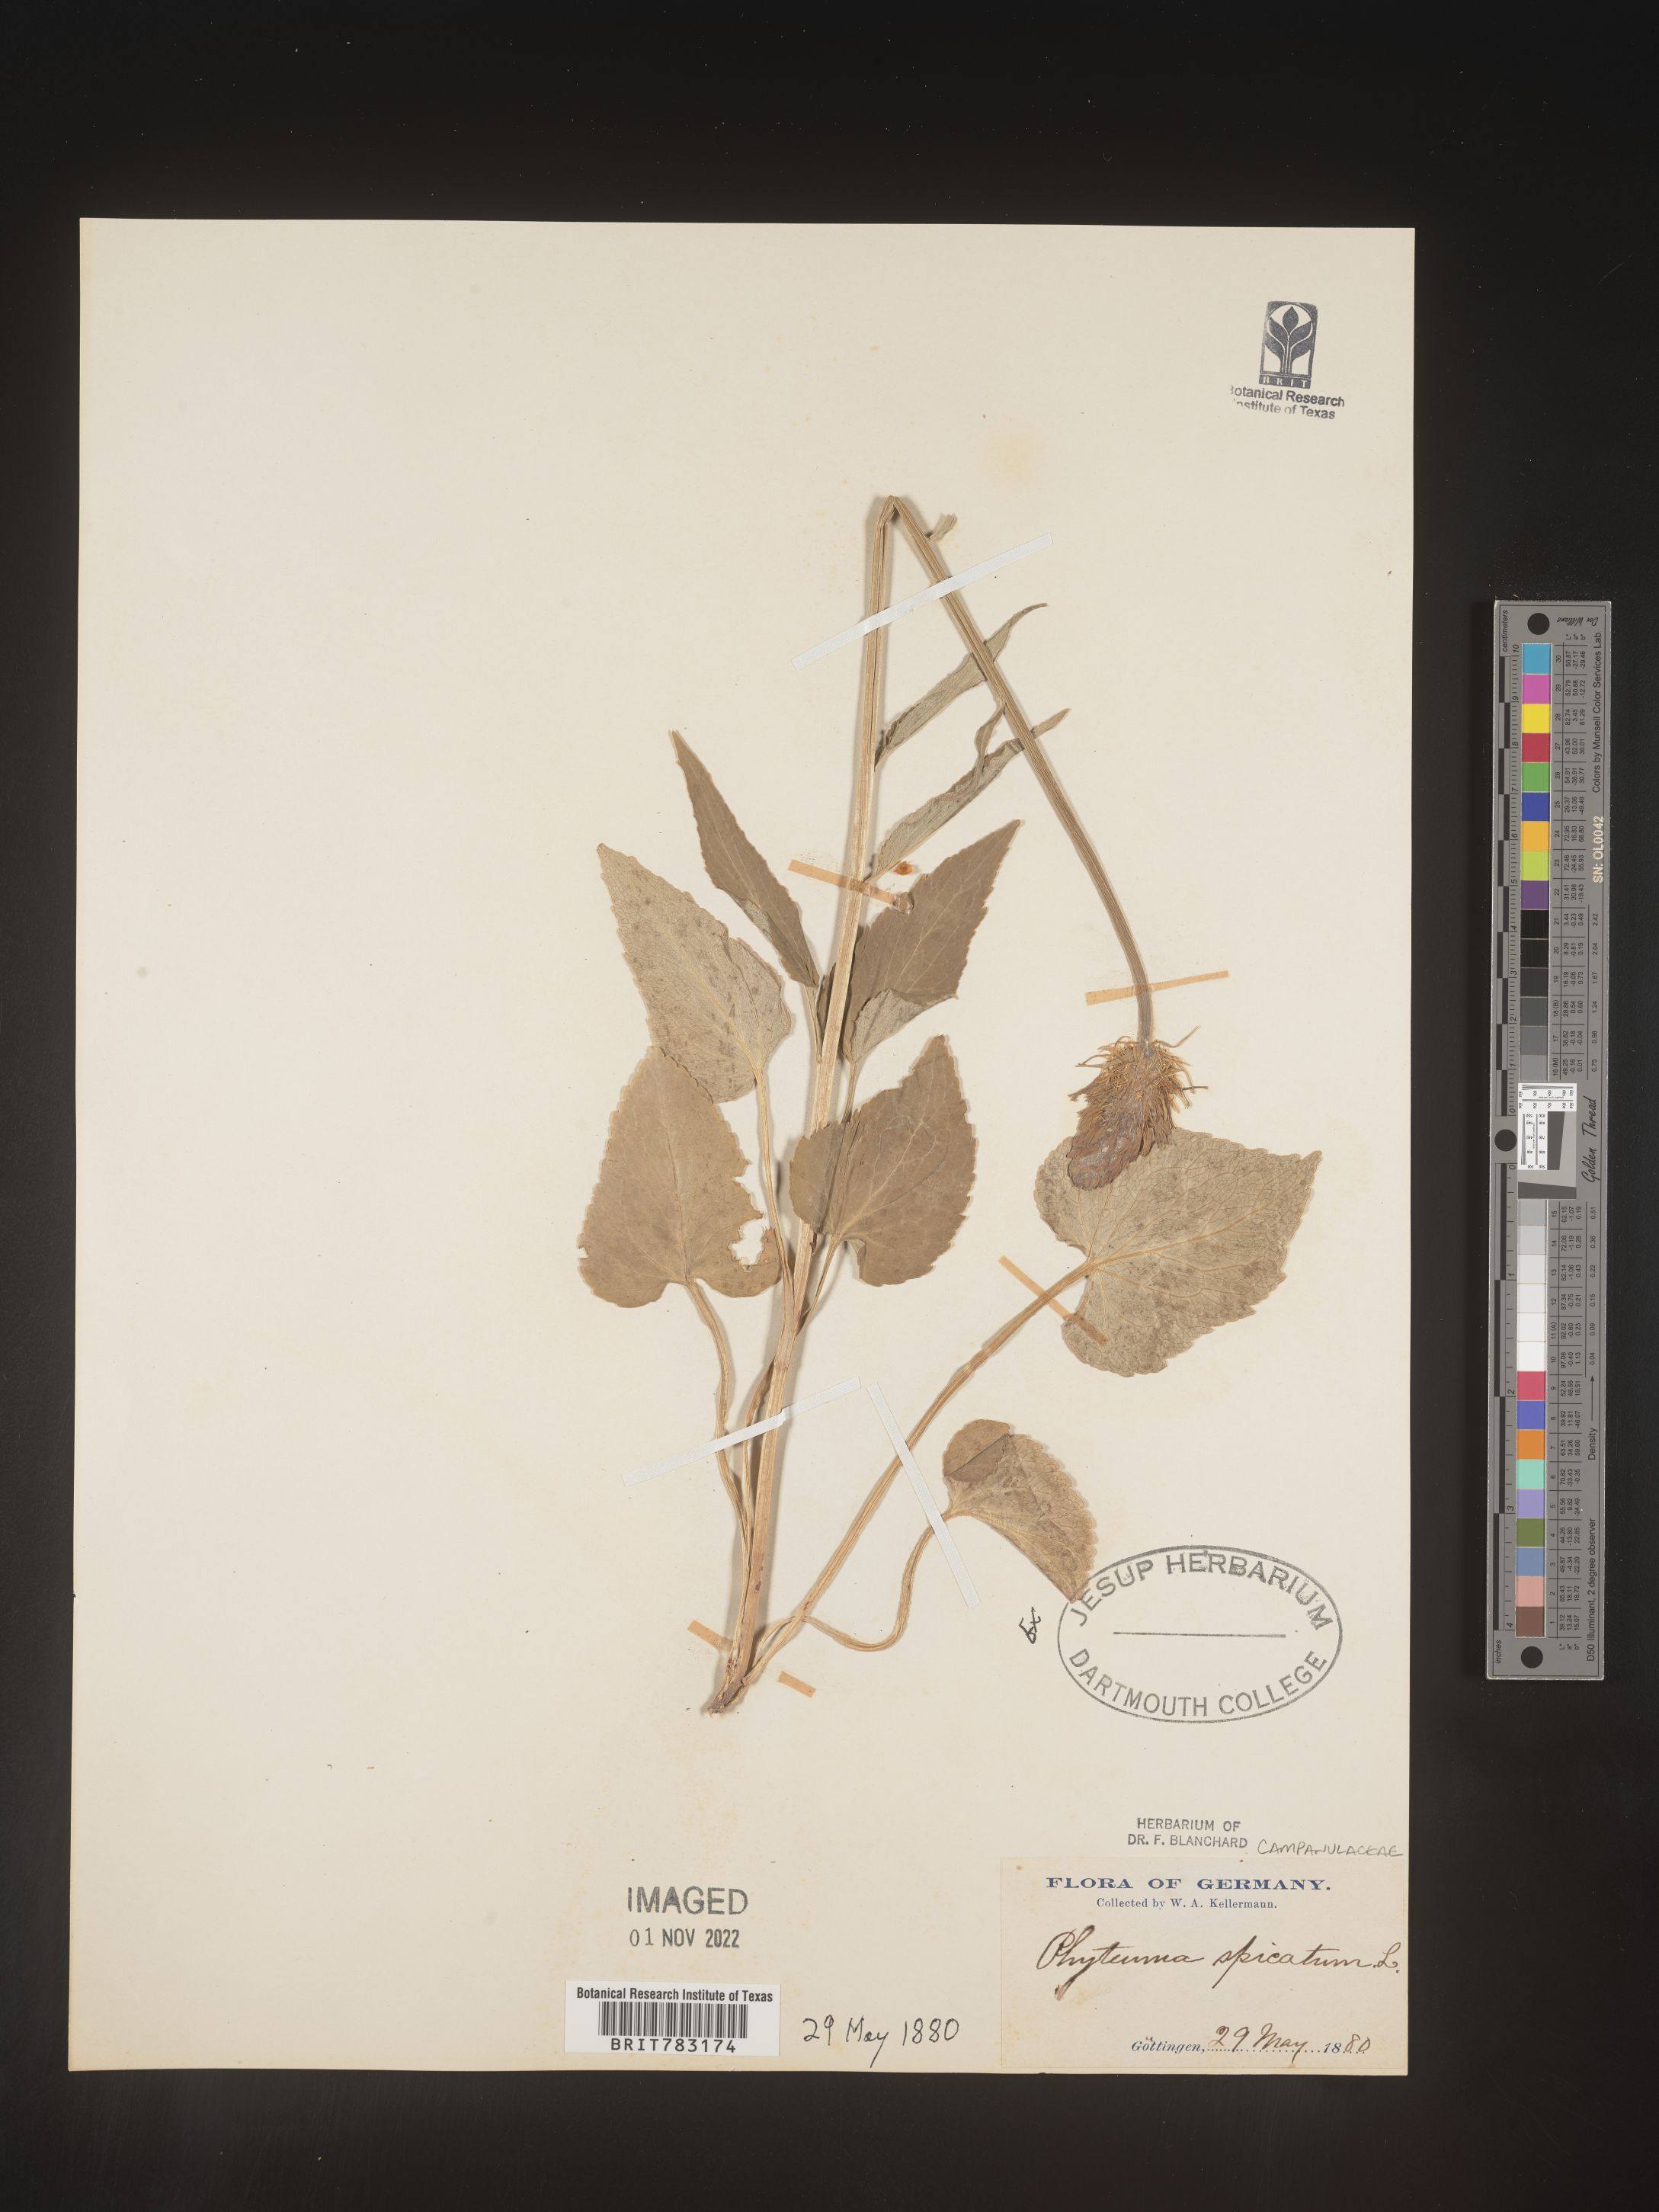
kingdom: Plantae
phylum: Tracheophyta
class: Magnoliopsida
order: Asterales
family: Campanulaceae
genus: Phyteuma
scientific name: Phyteuma
